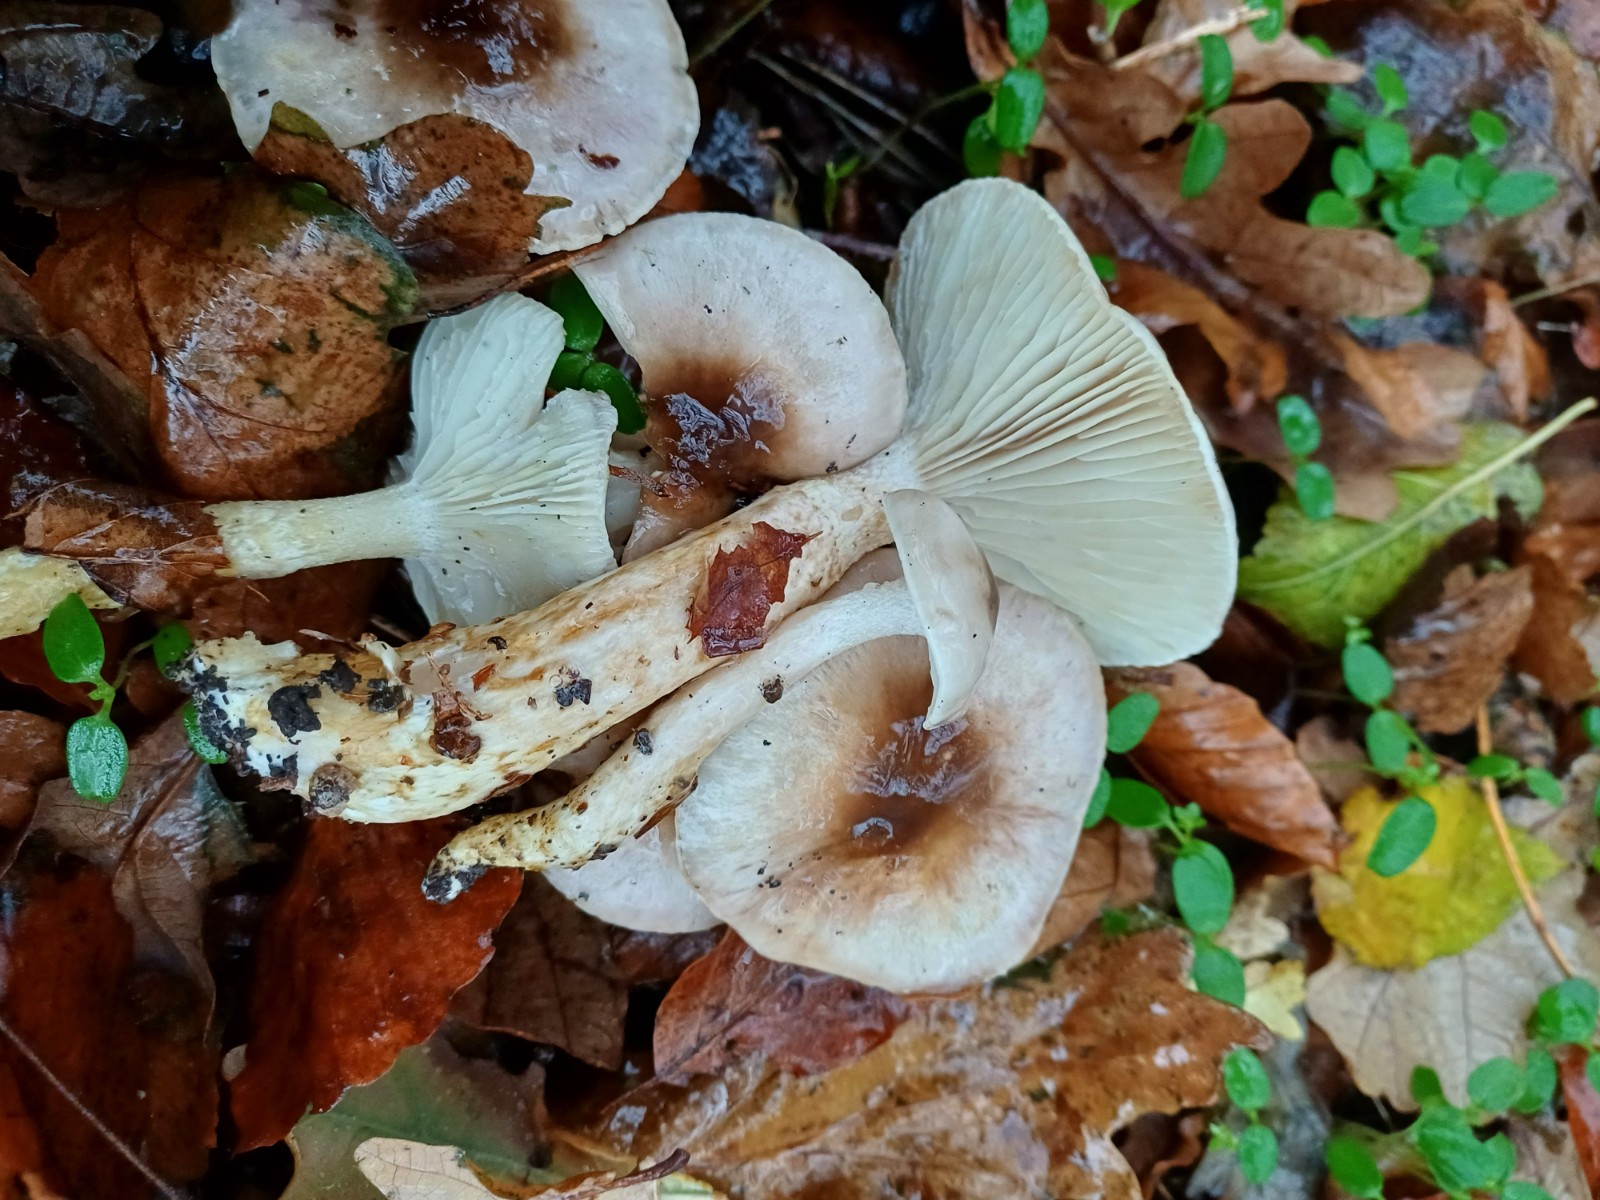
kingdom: Fungi
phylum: Basidiomycota
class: Agaricomycetes
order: Agaricales
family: Hygrophoraceae
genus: Hygrophorus
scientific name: Hygrophorus glutinifer
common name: tvefarvet sneglehat
